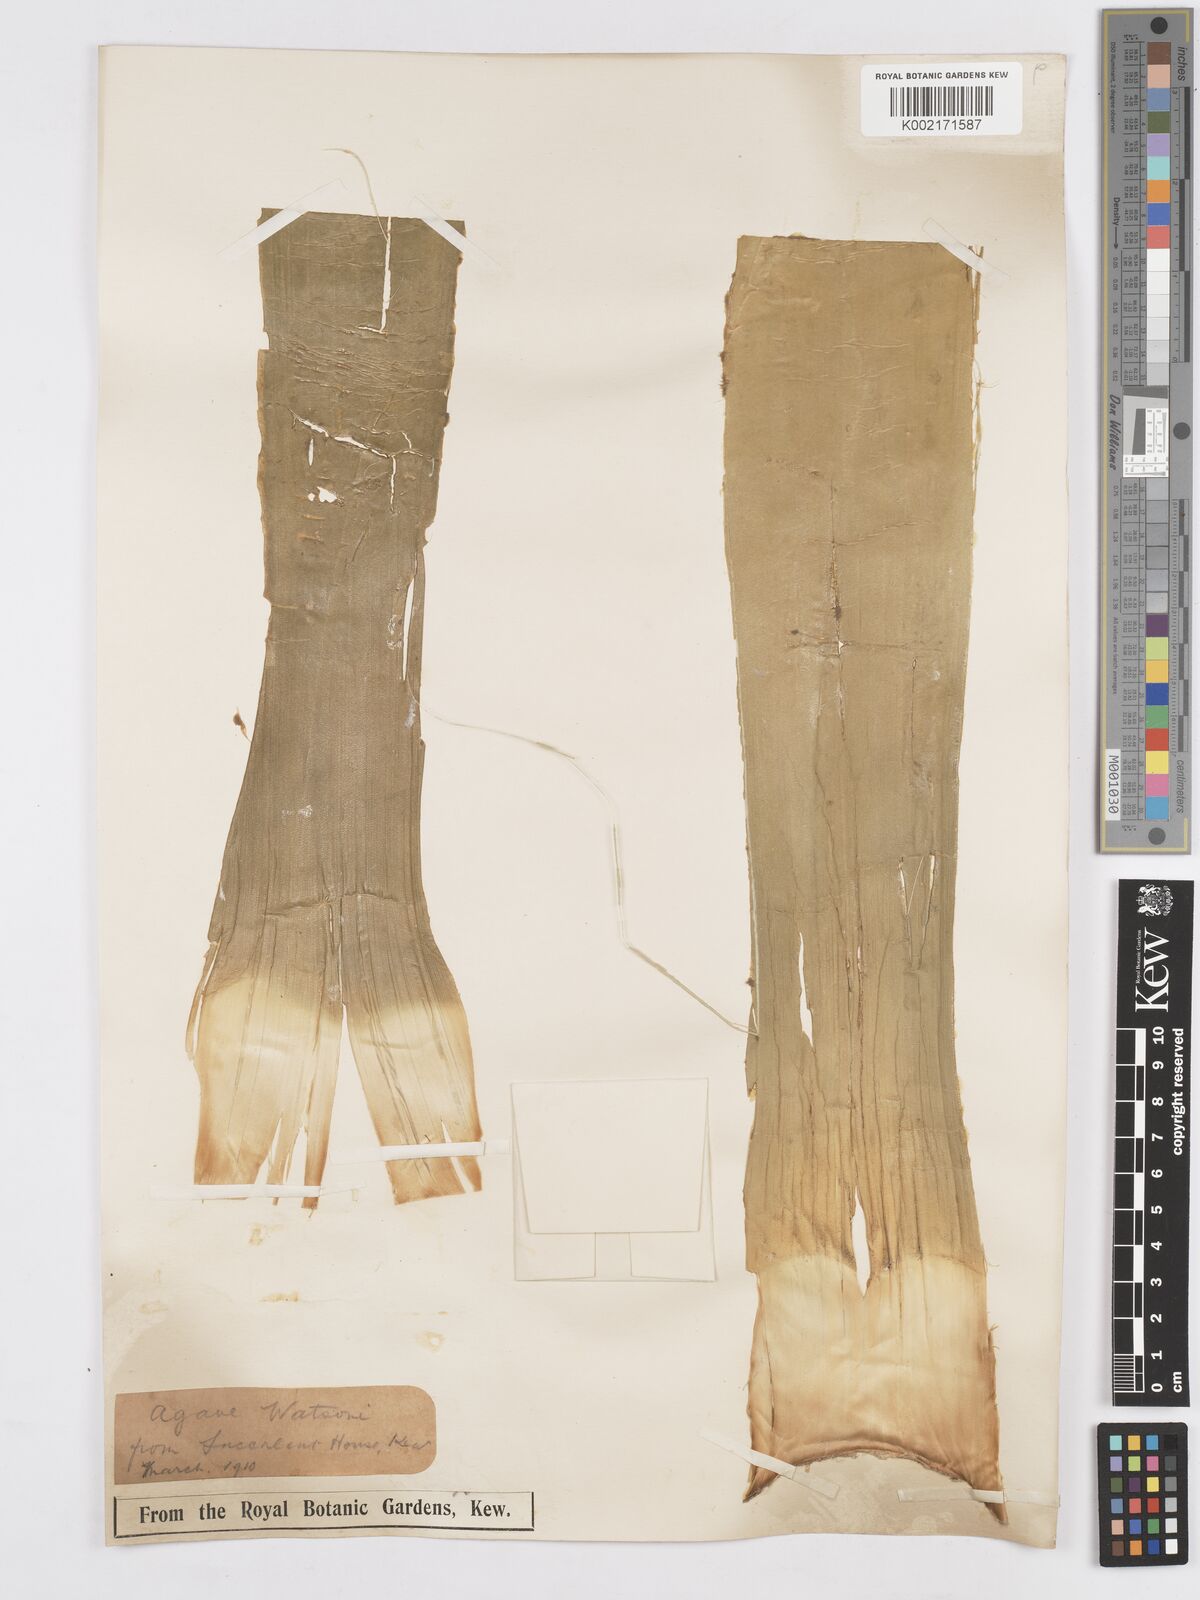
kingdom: Plantae
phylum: Tracheophyta
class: Liliopsida
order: Asparagales
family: Asparagaceae
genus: Agave
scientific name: Agave watsonii
